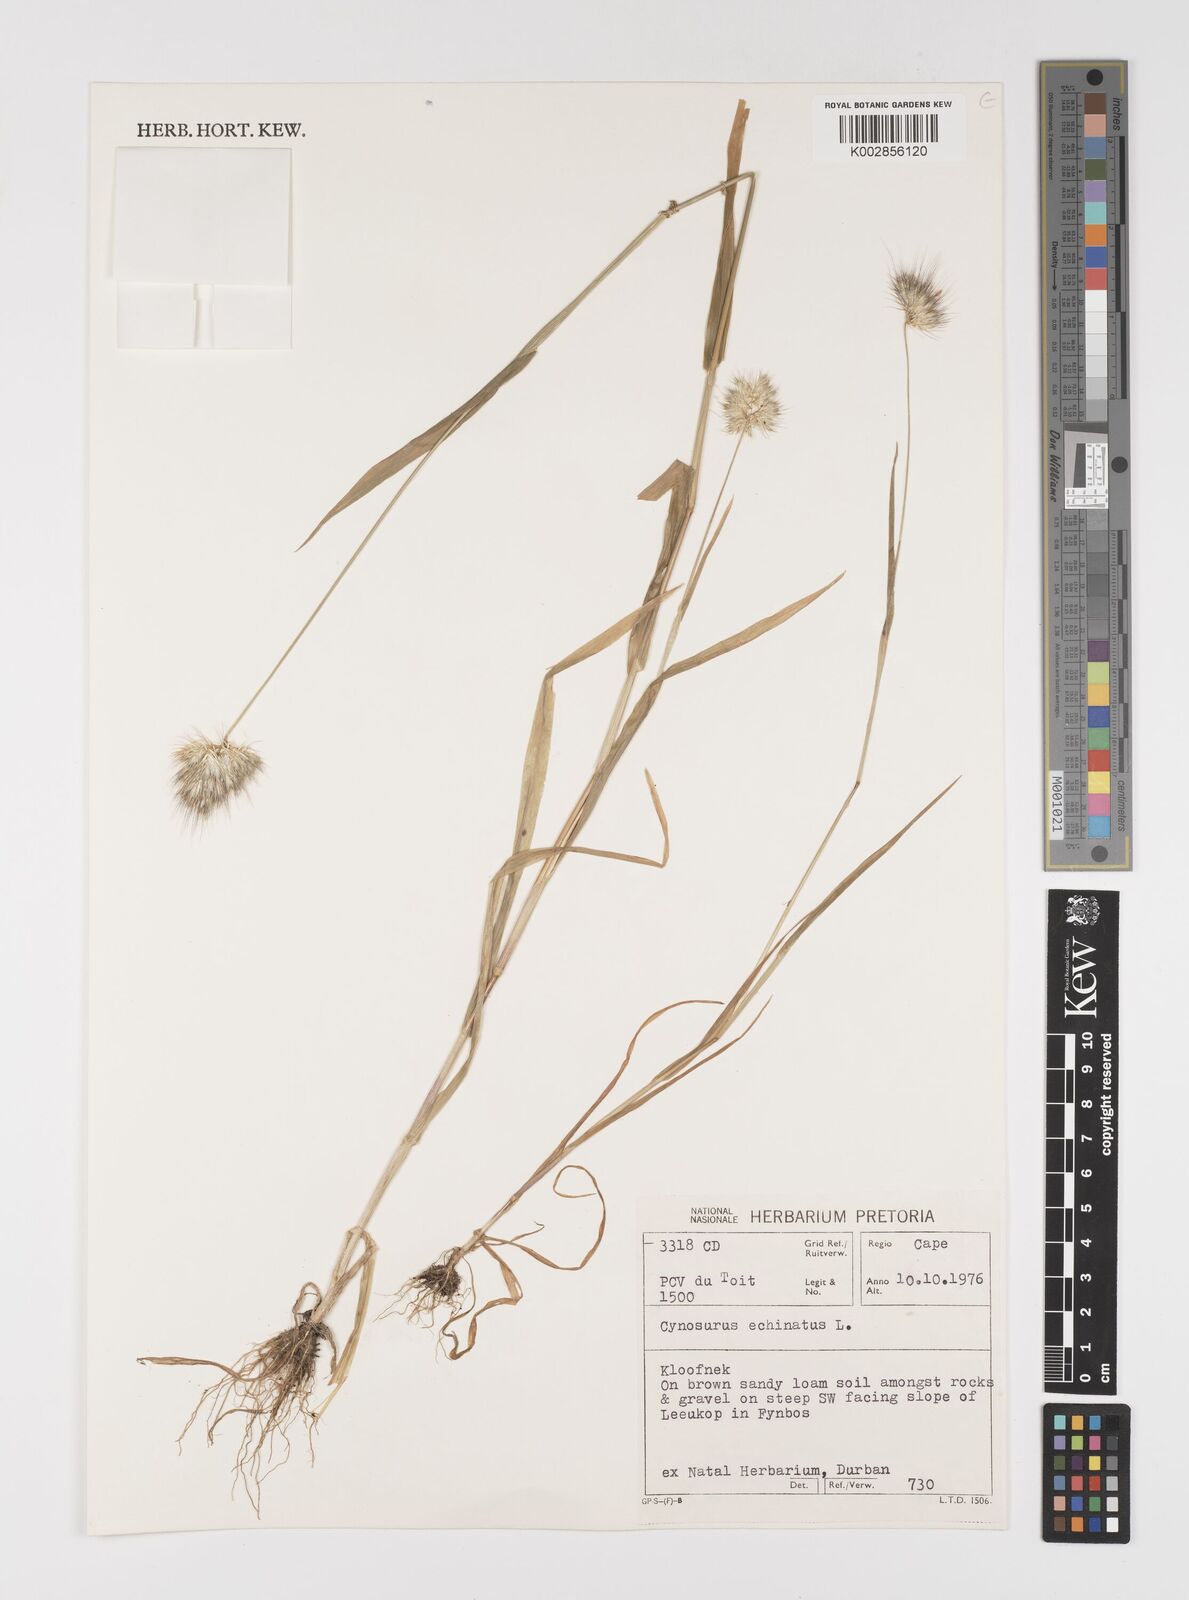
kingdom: Plantae
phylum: Tracheophyta
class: Liliopsida
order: Poales
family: Poaceae
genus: Cynosurus
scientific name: Cynosurus echinatus
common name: Rough dog's-tail
